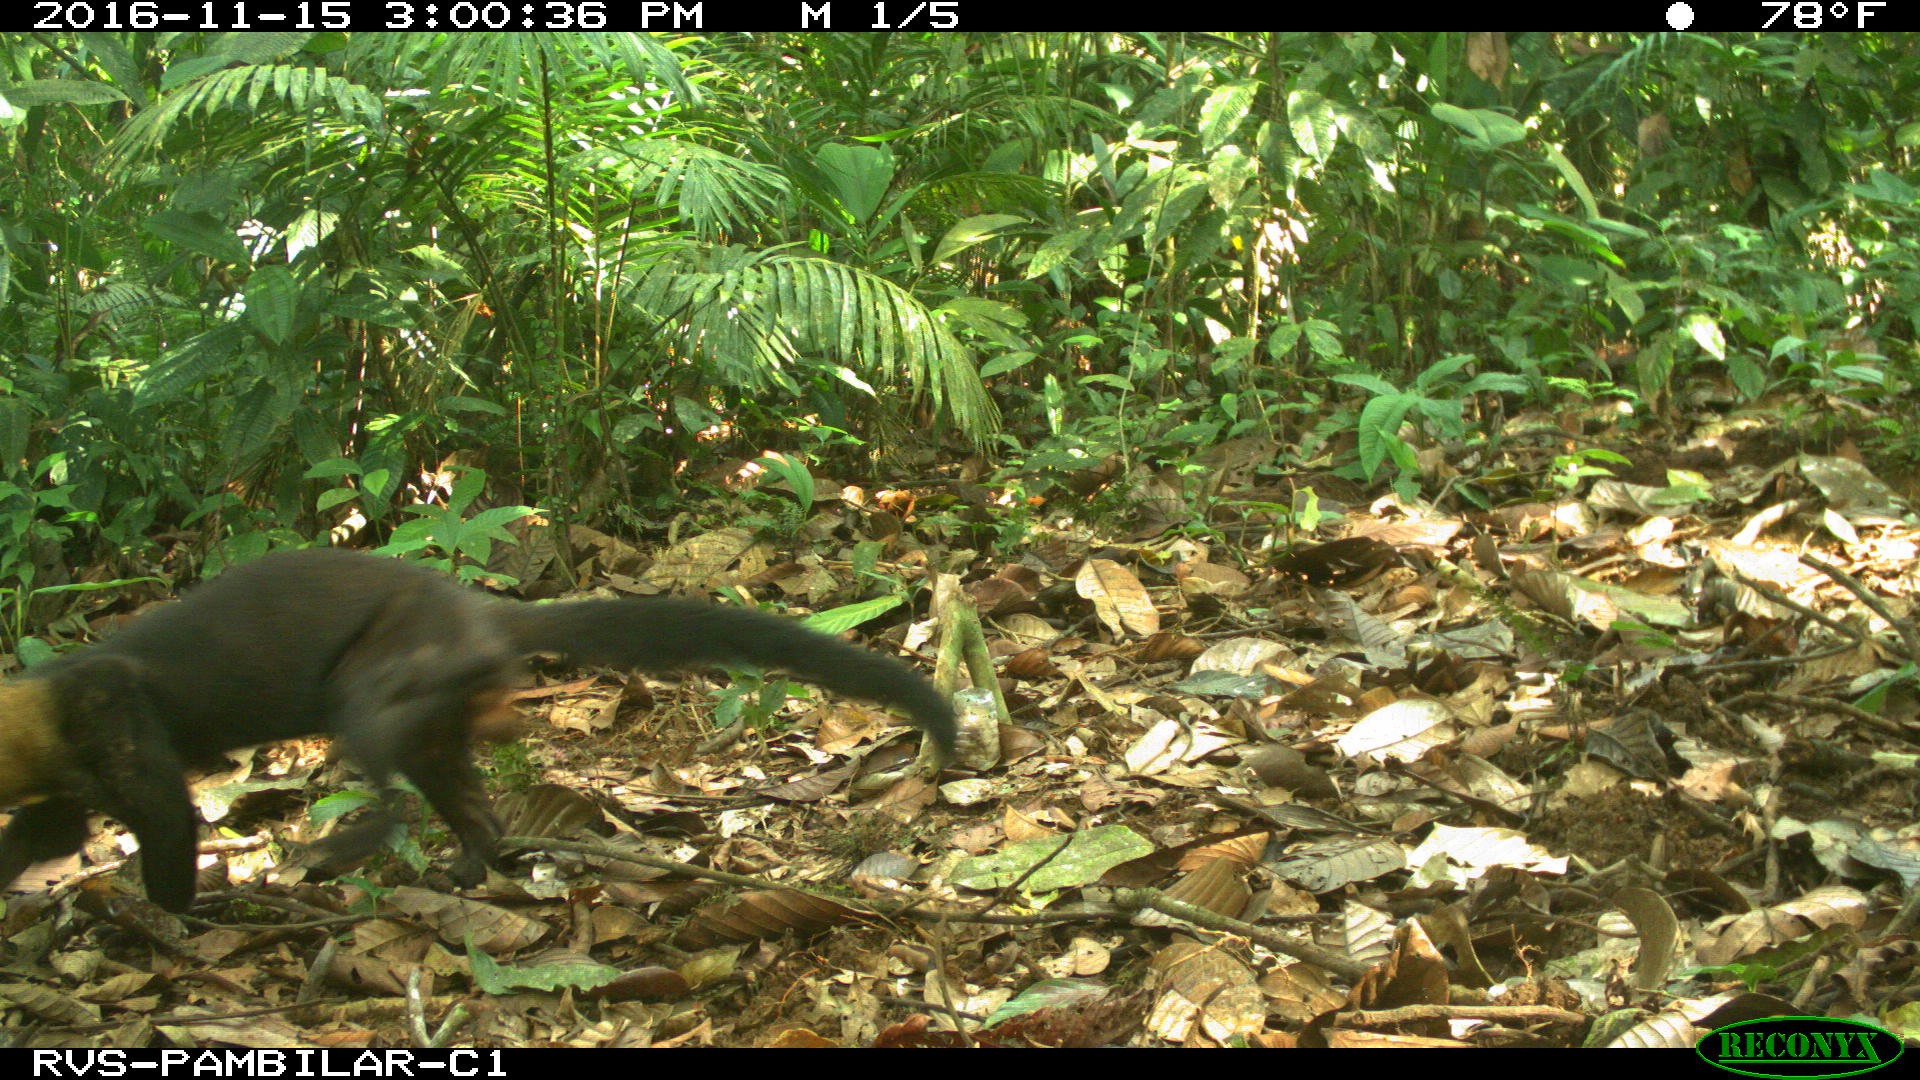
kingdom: Animalia
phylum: Chordata
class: Mammalia
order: Carnivora
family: Mustelidae
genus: Eira
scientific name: Eira barbara
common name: Tayra
